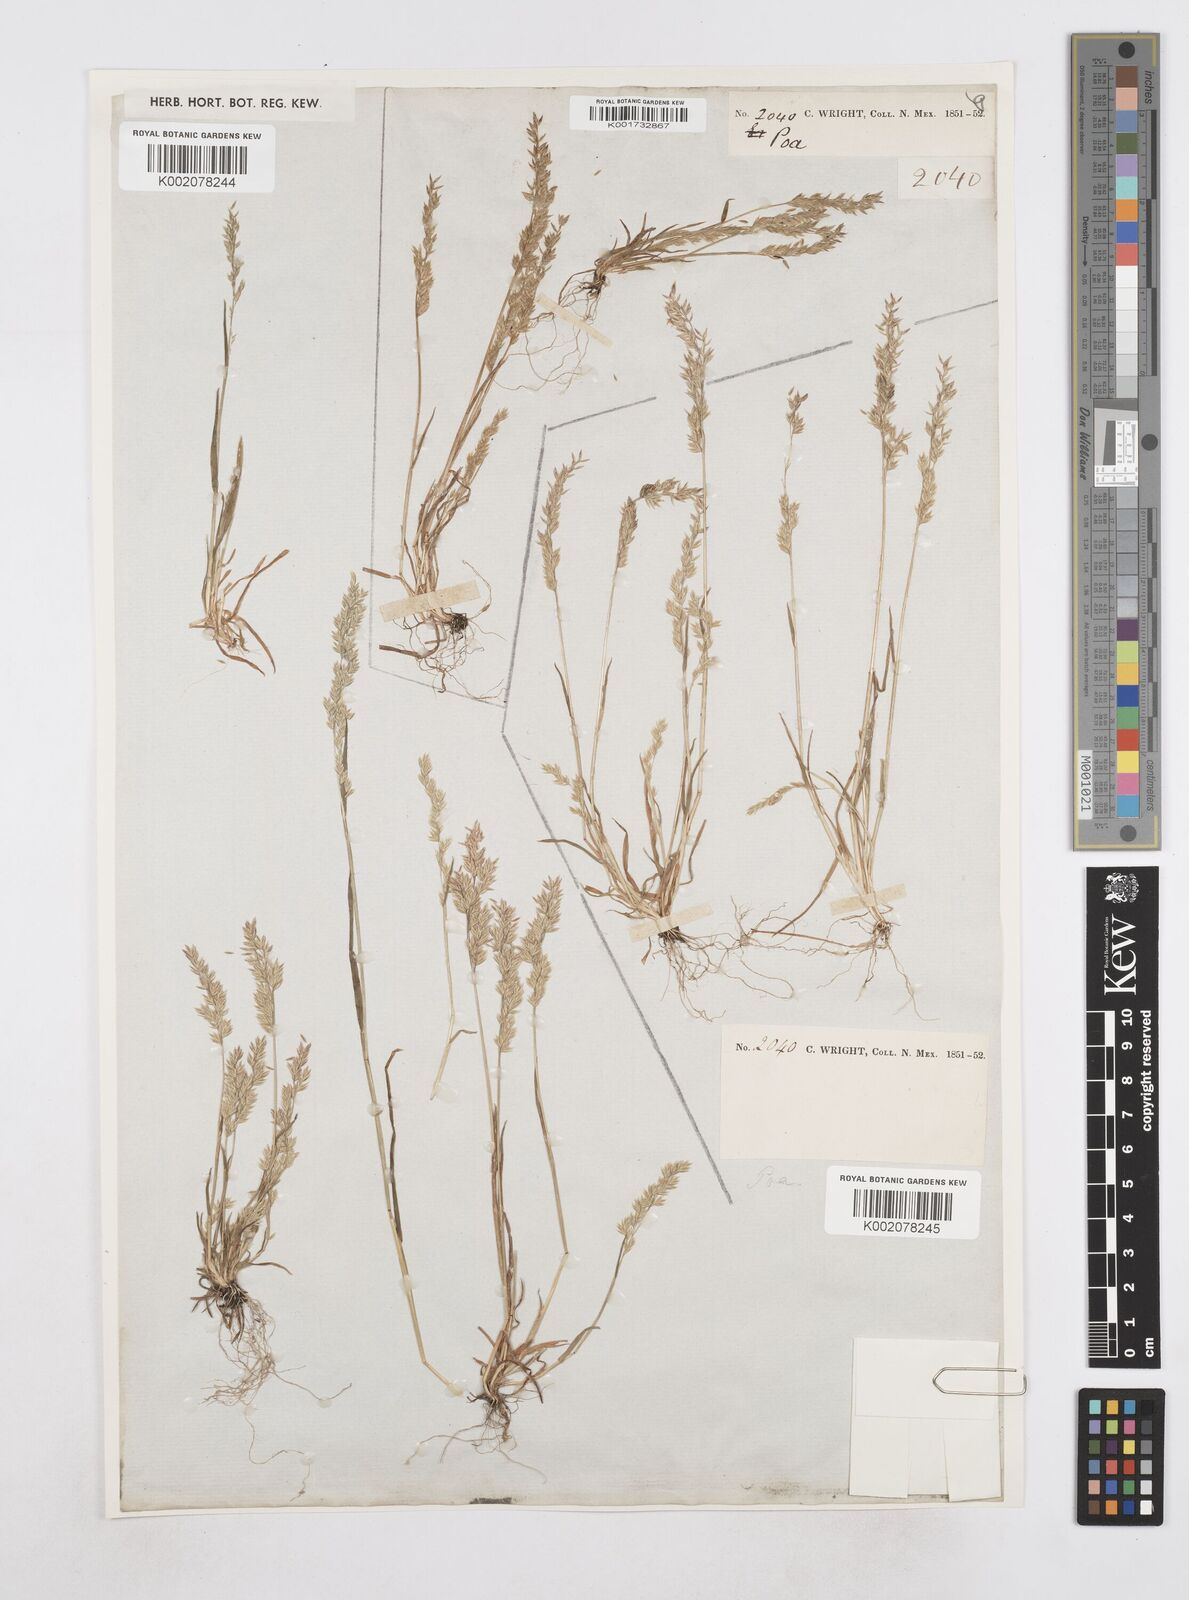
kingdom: Plantae
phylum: Tracheophyta
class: Liliopsida
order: Poales
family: Poaceae
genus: Poa
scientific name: Poa
